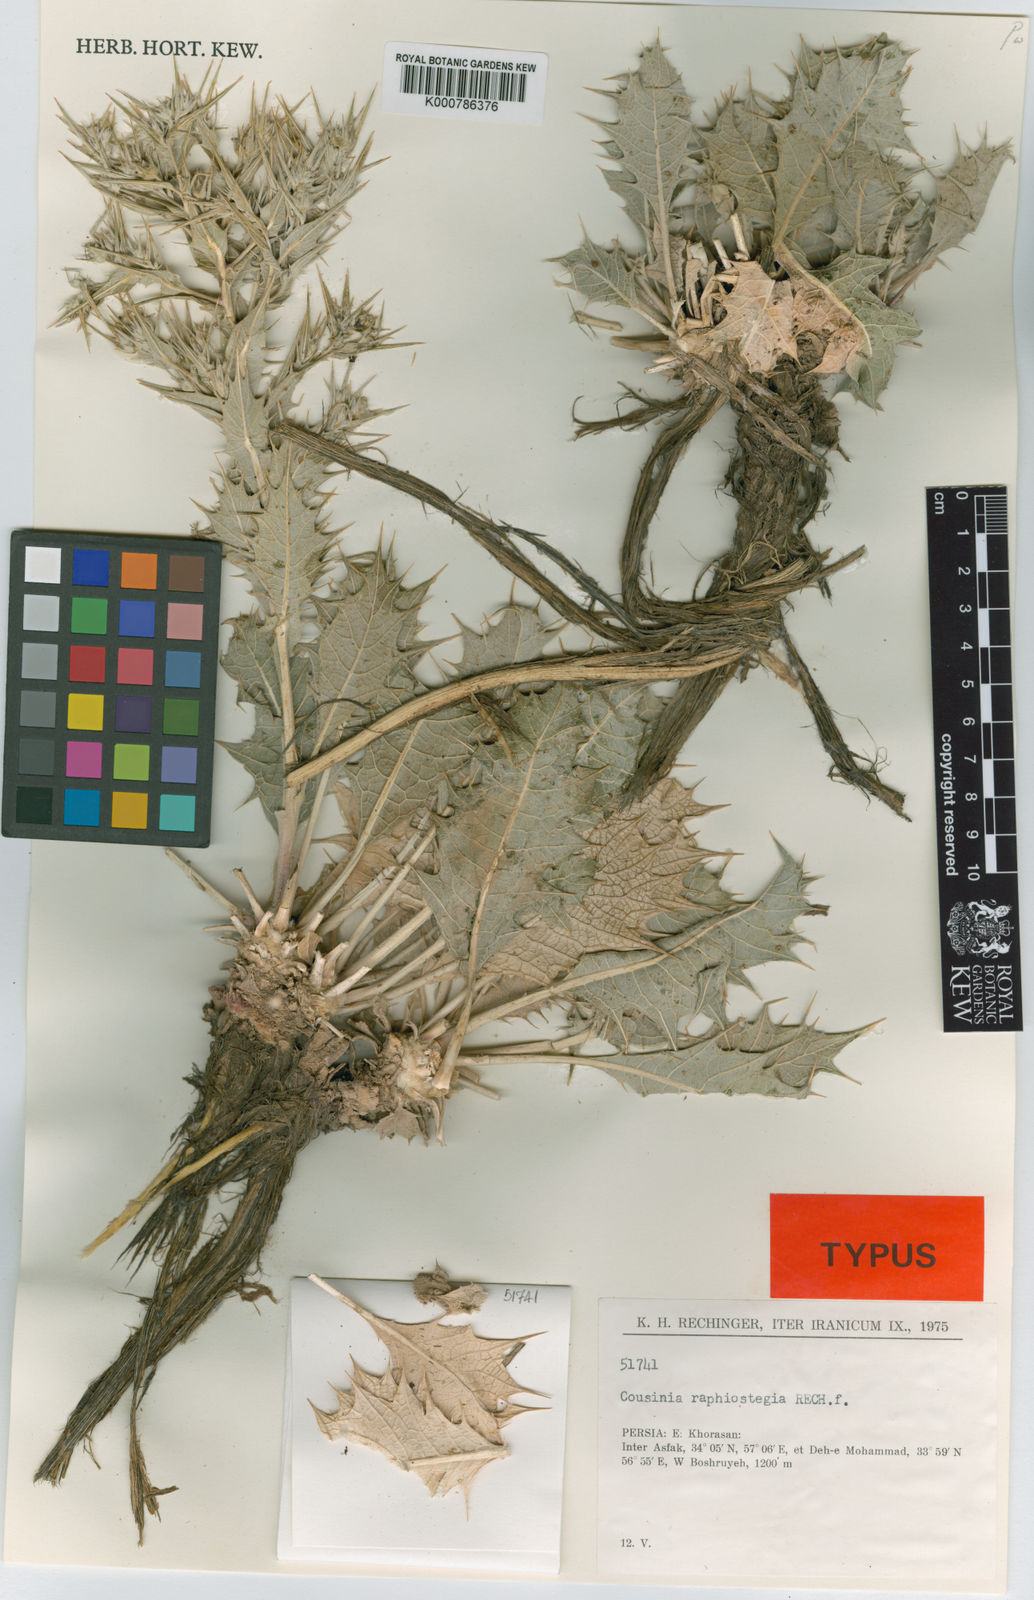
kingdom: Plantae
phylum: Tracheophyta
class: Magnoliopsida
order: Asterales
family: Asteraceae
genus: Cousinia
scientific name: Cousinia raphiostegia
